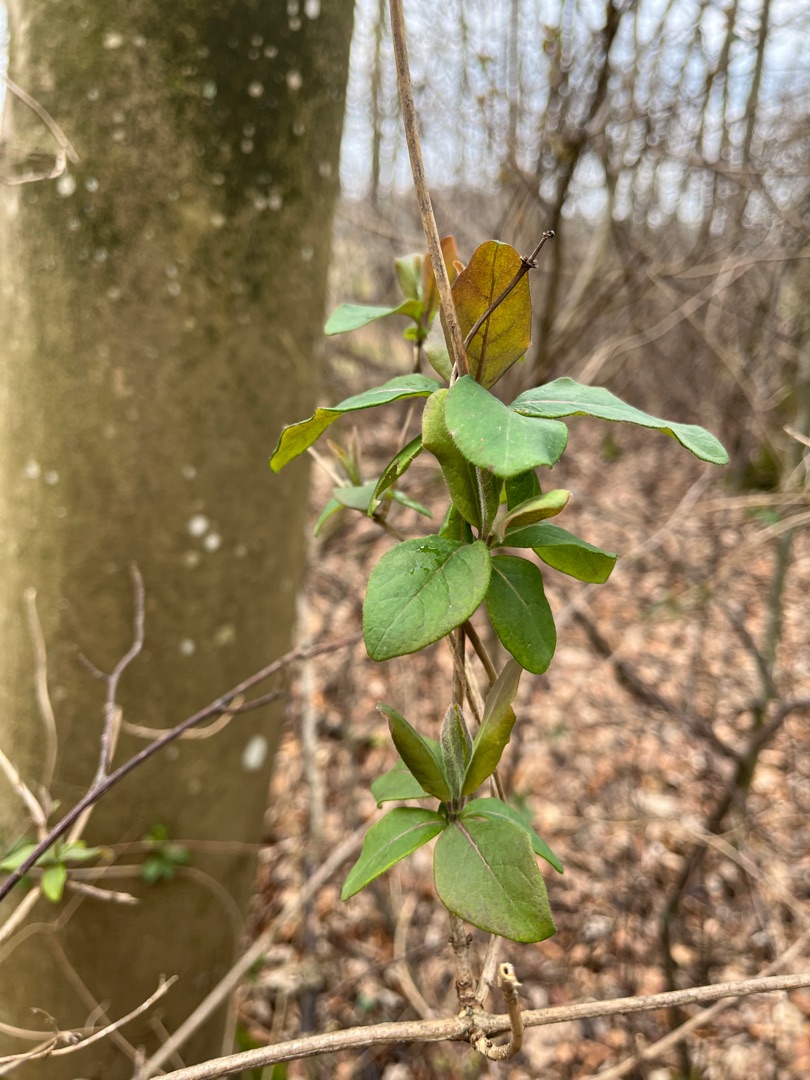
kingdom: Plantae
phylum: Tracheophyta
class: Magnoliopsida
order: Dipsacales
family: Caprifoliaceae
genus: Lonicera
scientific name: Lonicera periclymenum
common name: Almindelig gedeblad
